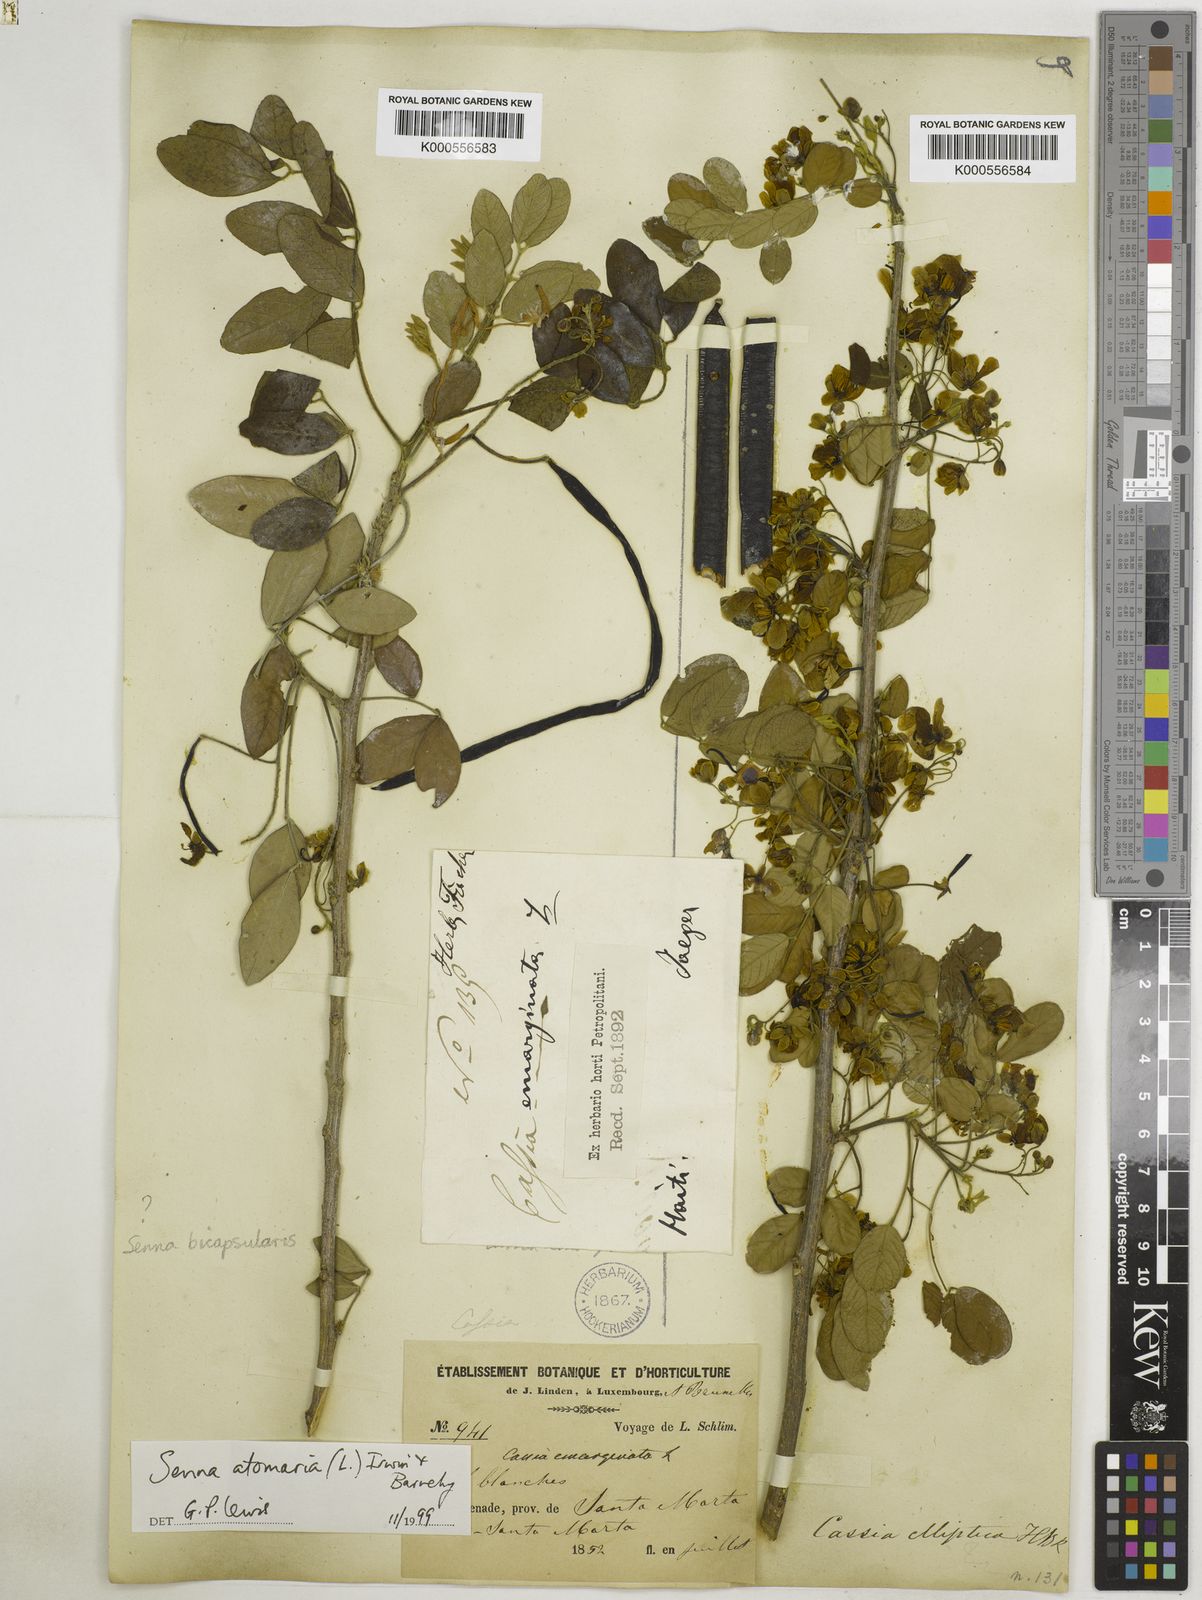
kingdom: Plantae
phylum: Tracheophyta
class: Magnoliopsida
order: Fabales
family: Fabaceae
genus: Senna
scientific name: Senna atomaria
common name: Flor de san jose
